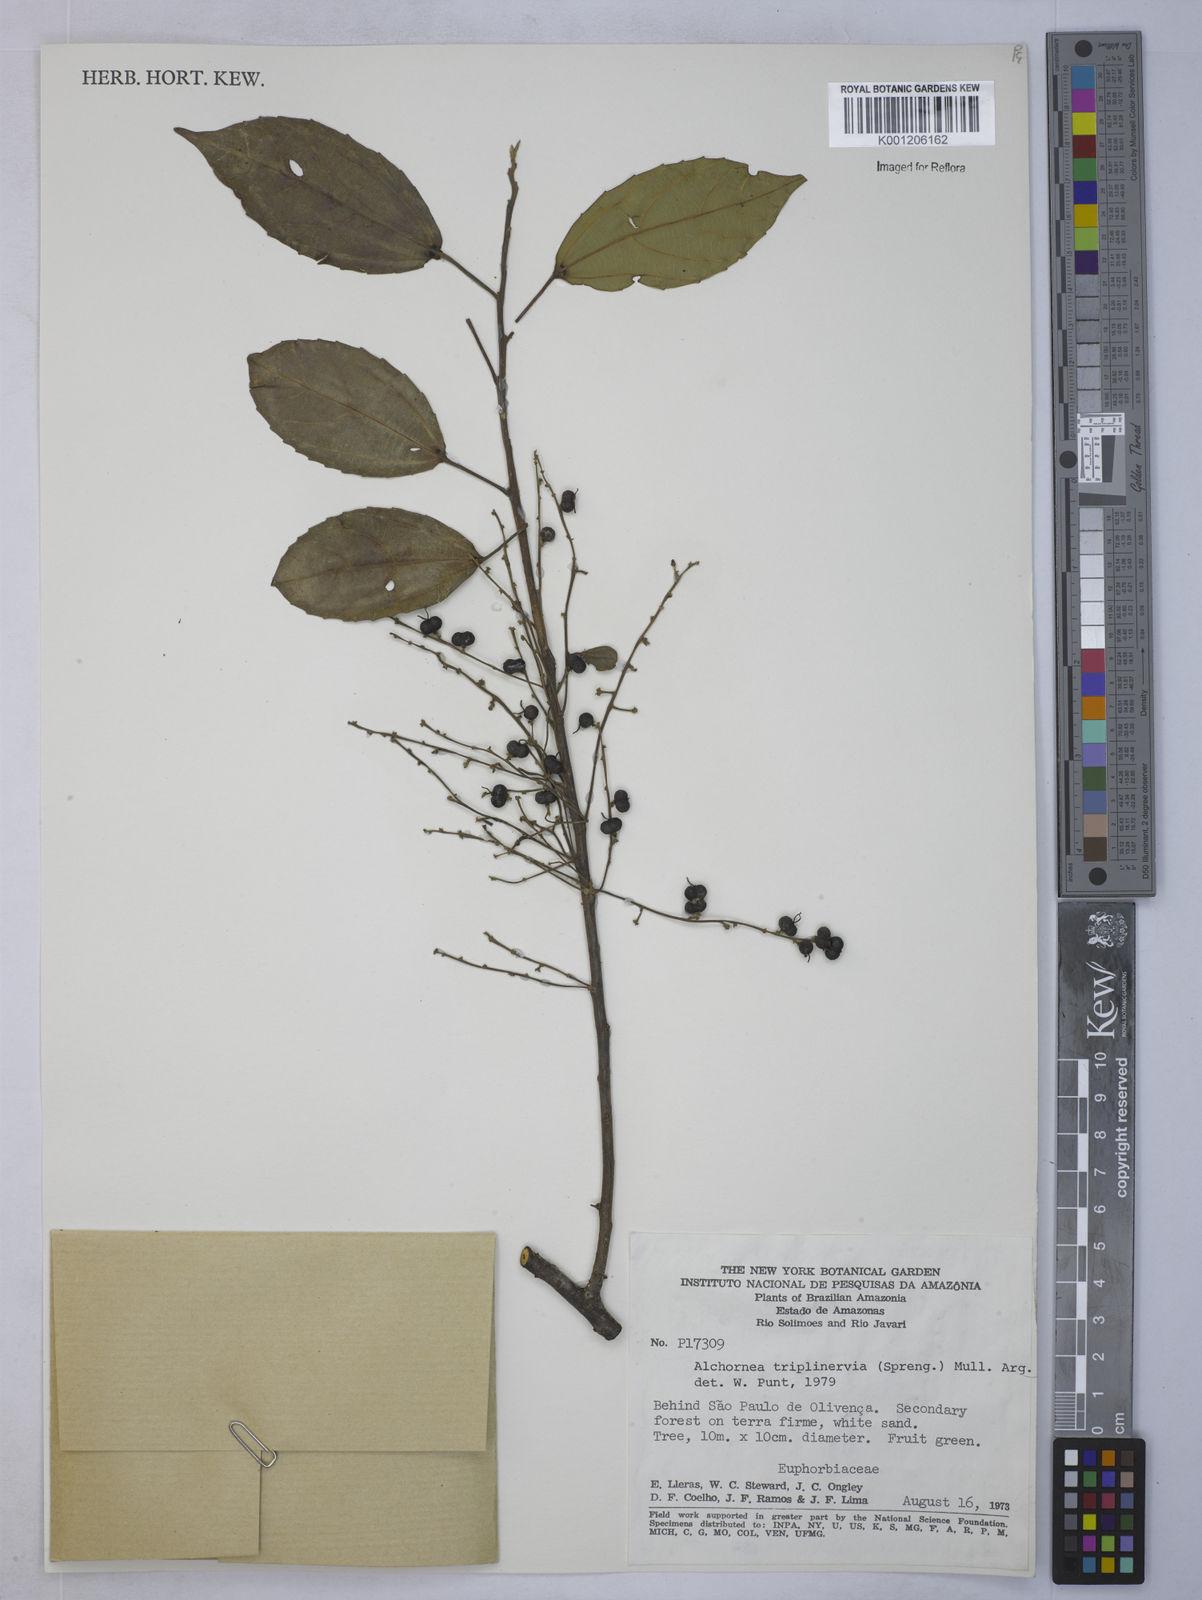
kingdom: Plantae
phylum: Tracheophyta
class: Magnoliopsida
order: Malpighiales
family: Euphorbiaceae
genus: Alchornea
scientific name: Alchornea
